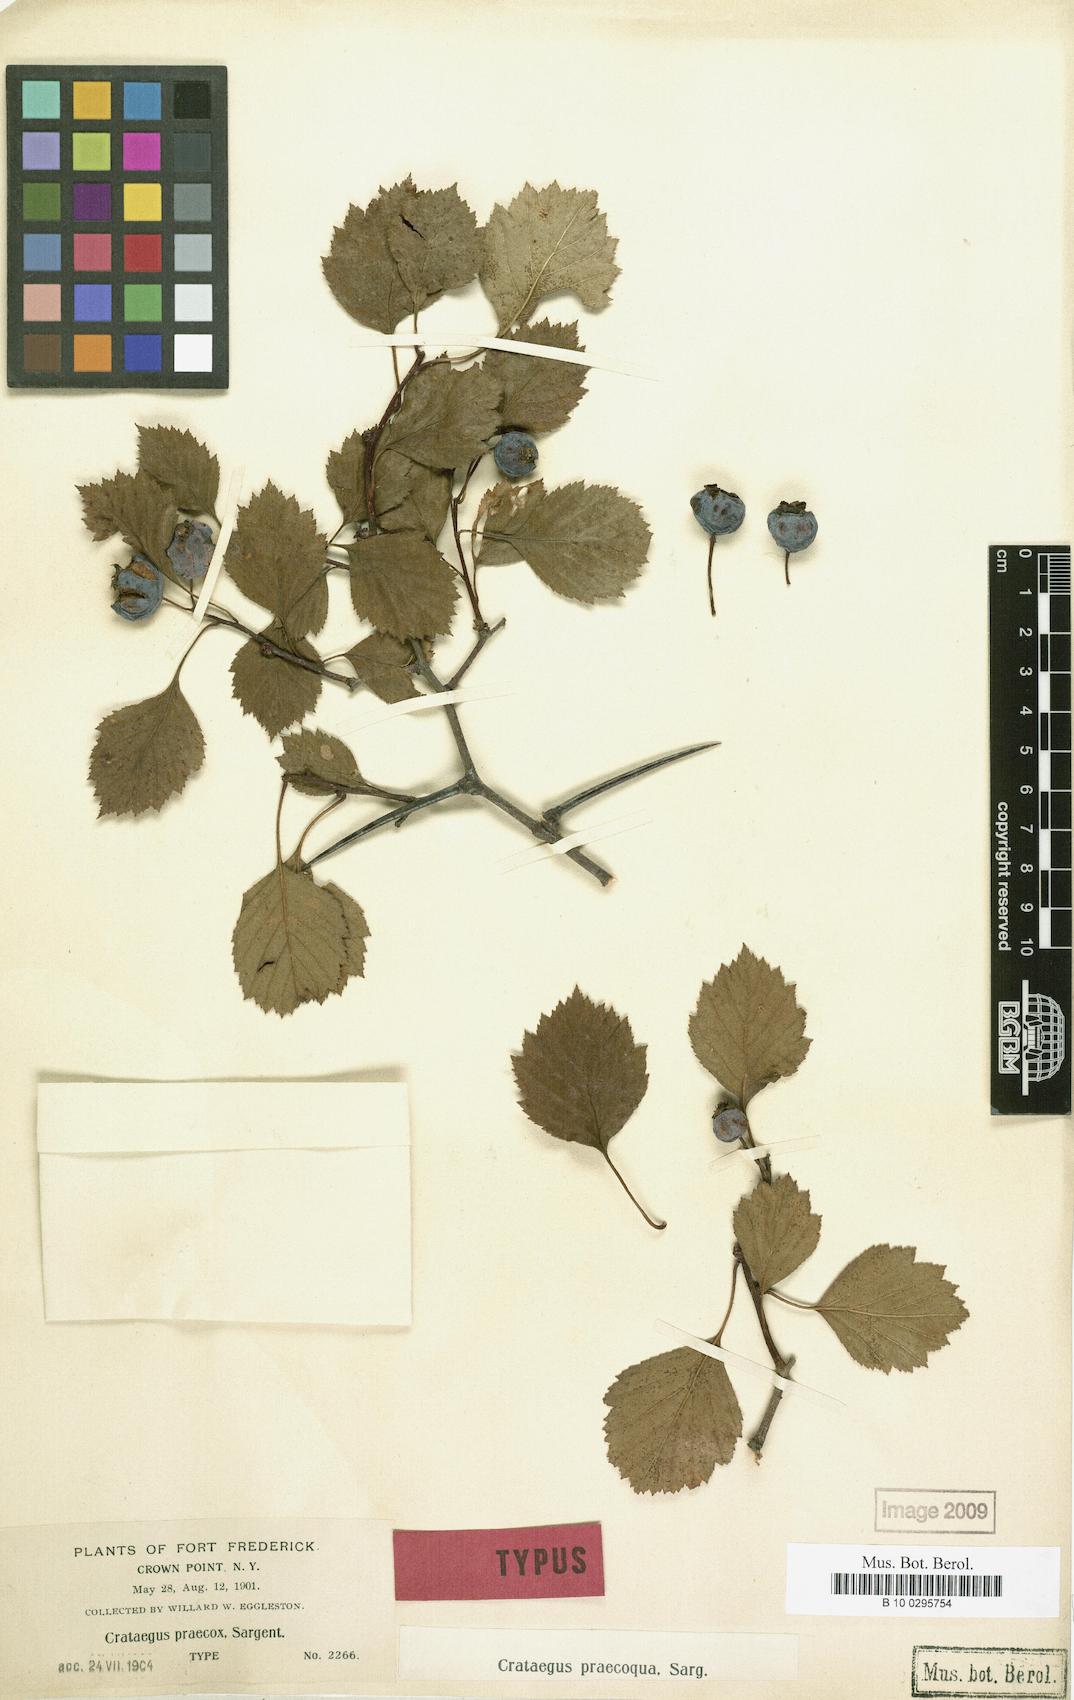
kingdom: Plantae
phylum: Tracheophyta
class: Magnoliopsida
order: Rosales
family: Rosaceae
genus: Crataegus
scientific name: Crataegus chrysocarpa
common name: Fire-berry hawthorn
